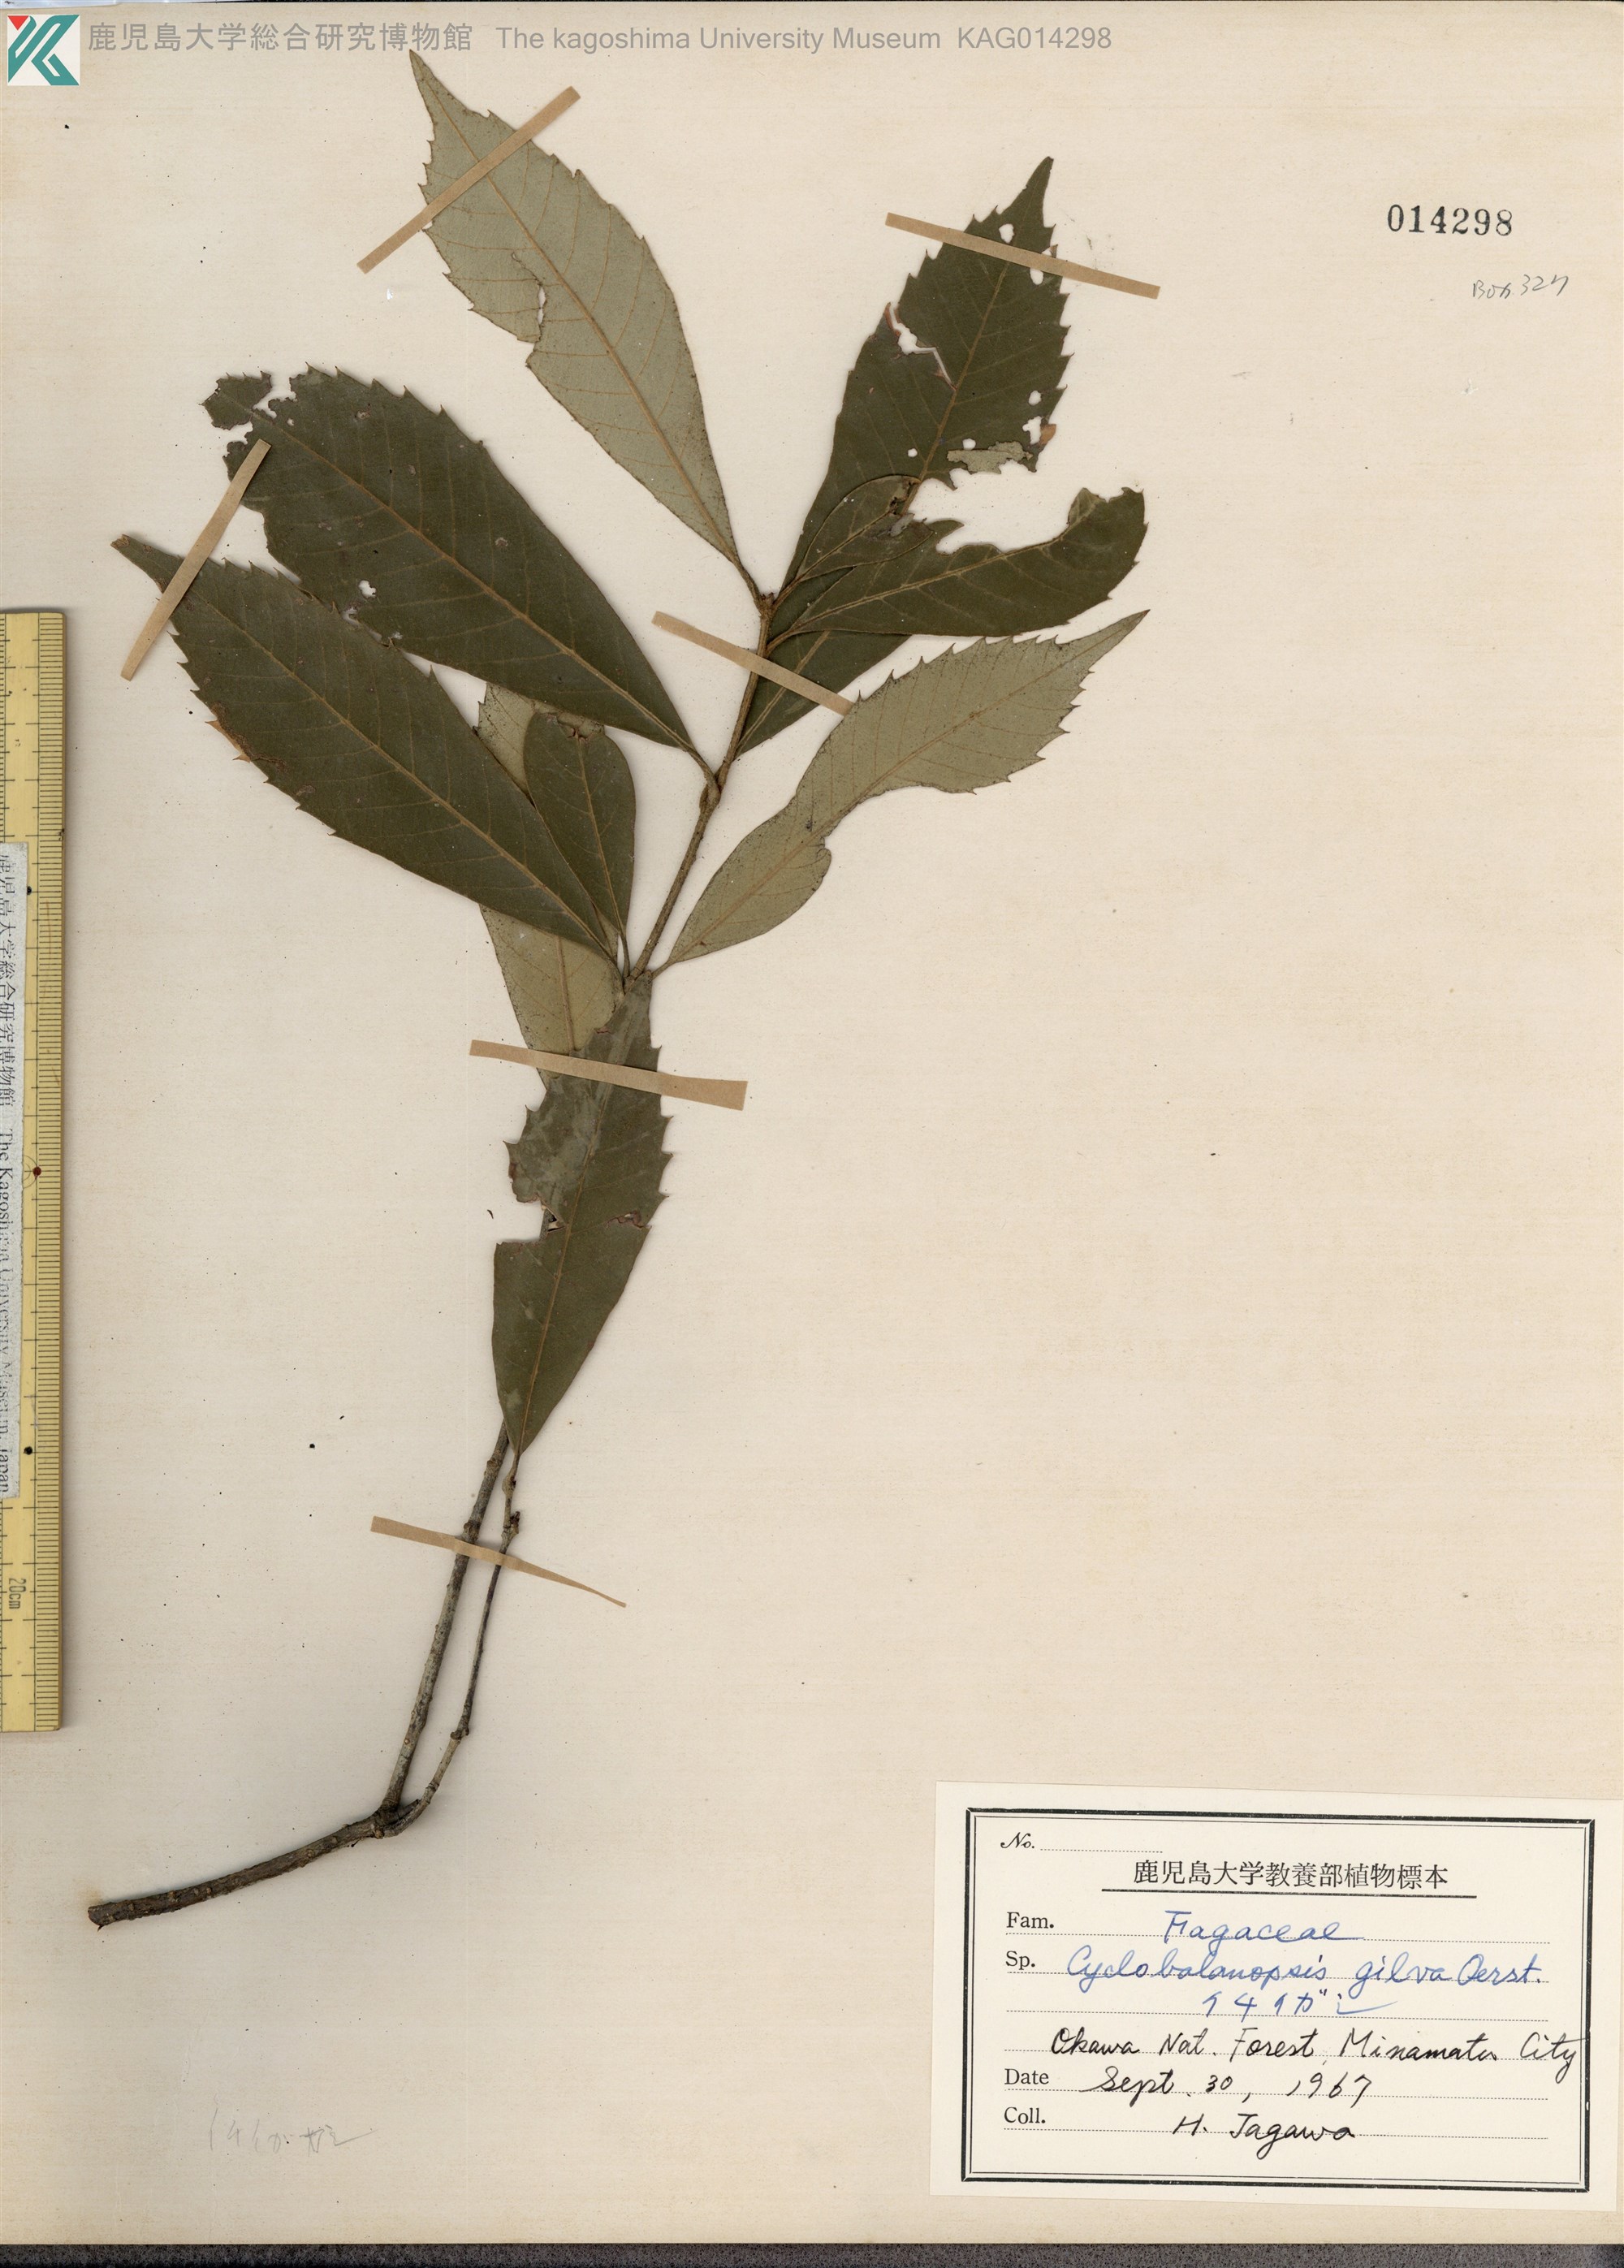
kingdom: Plantae
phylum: Tracheophyta
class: Magnoliopsida
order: Fagales
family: Fagaceae
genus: Quercus
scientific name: Quercus gilva
